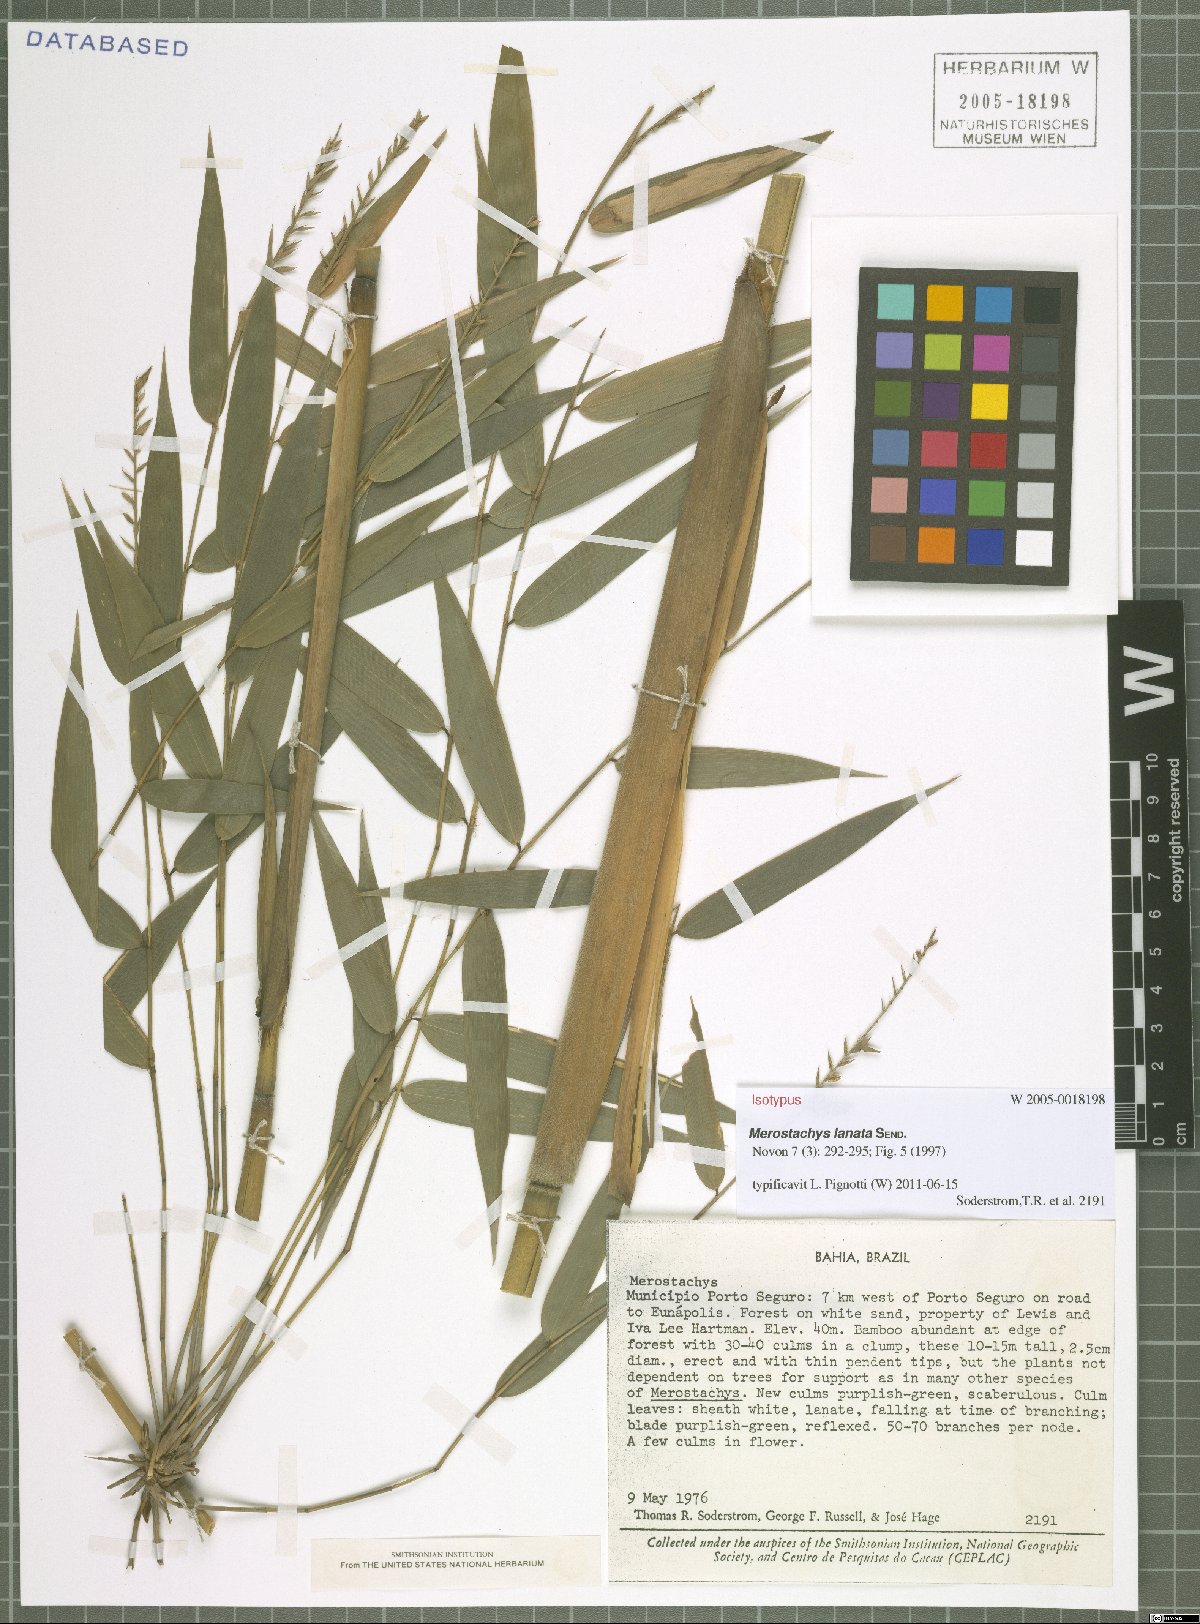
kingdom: Plantae
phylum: Tracheophyta
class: Liliopsida
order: Poales
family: Poaceae
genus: Merostachys
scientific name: Merostachys lanata
